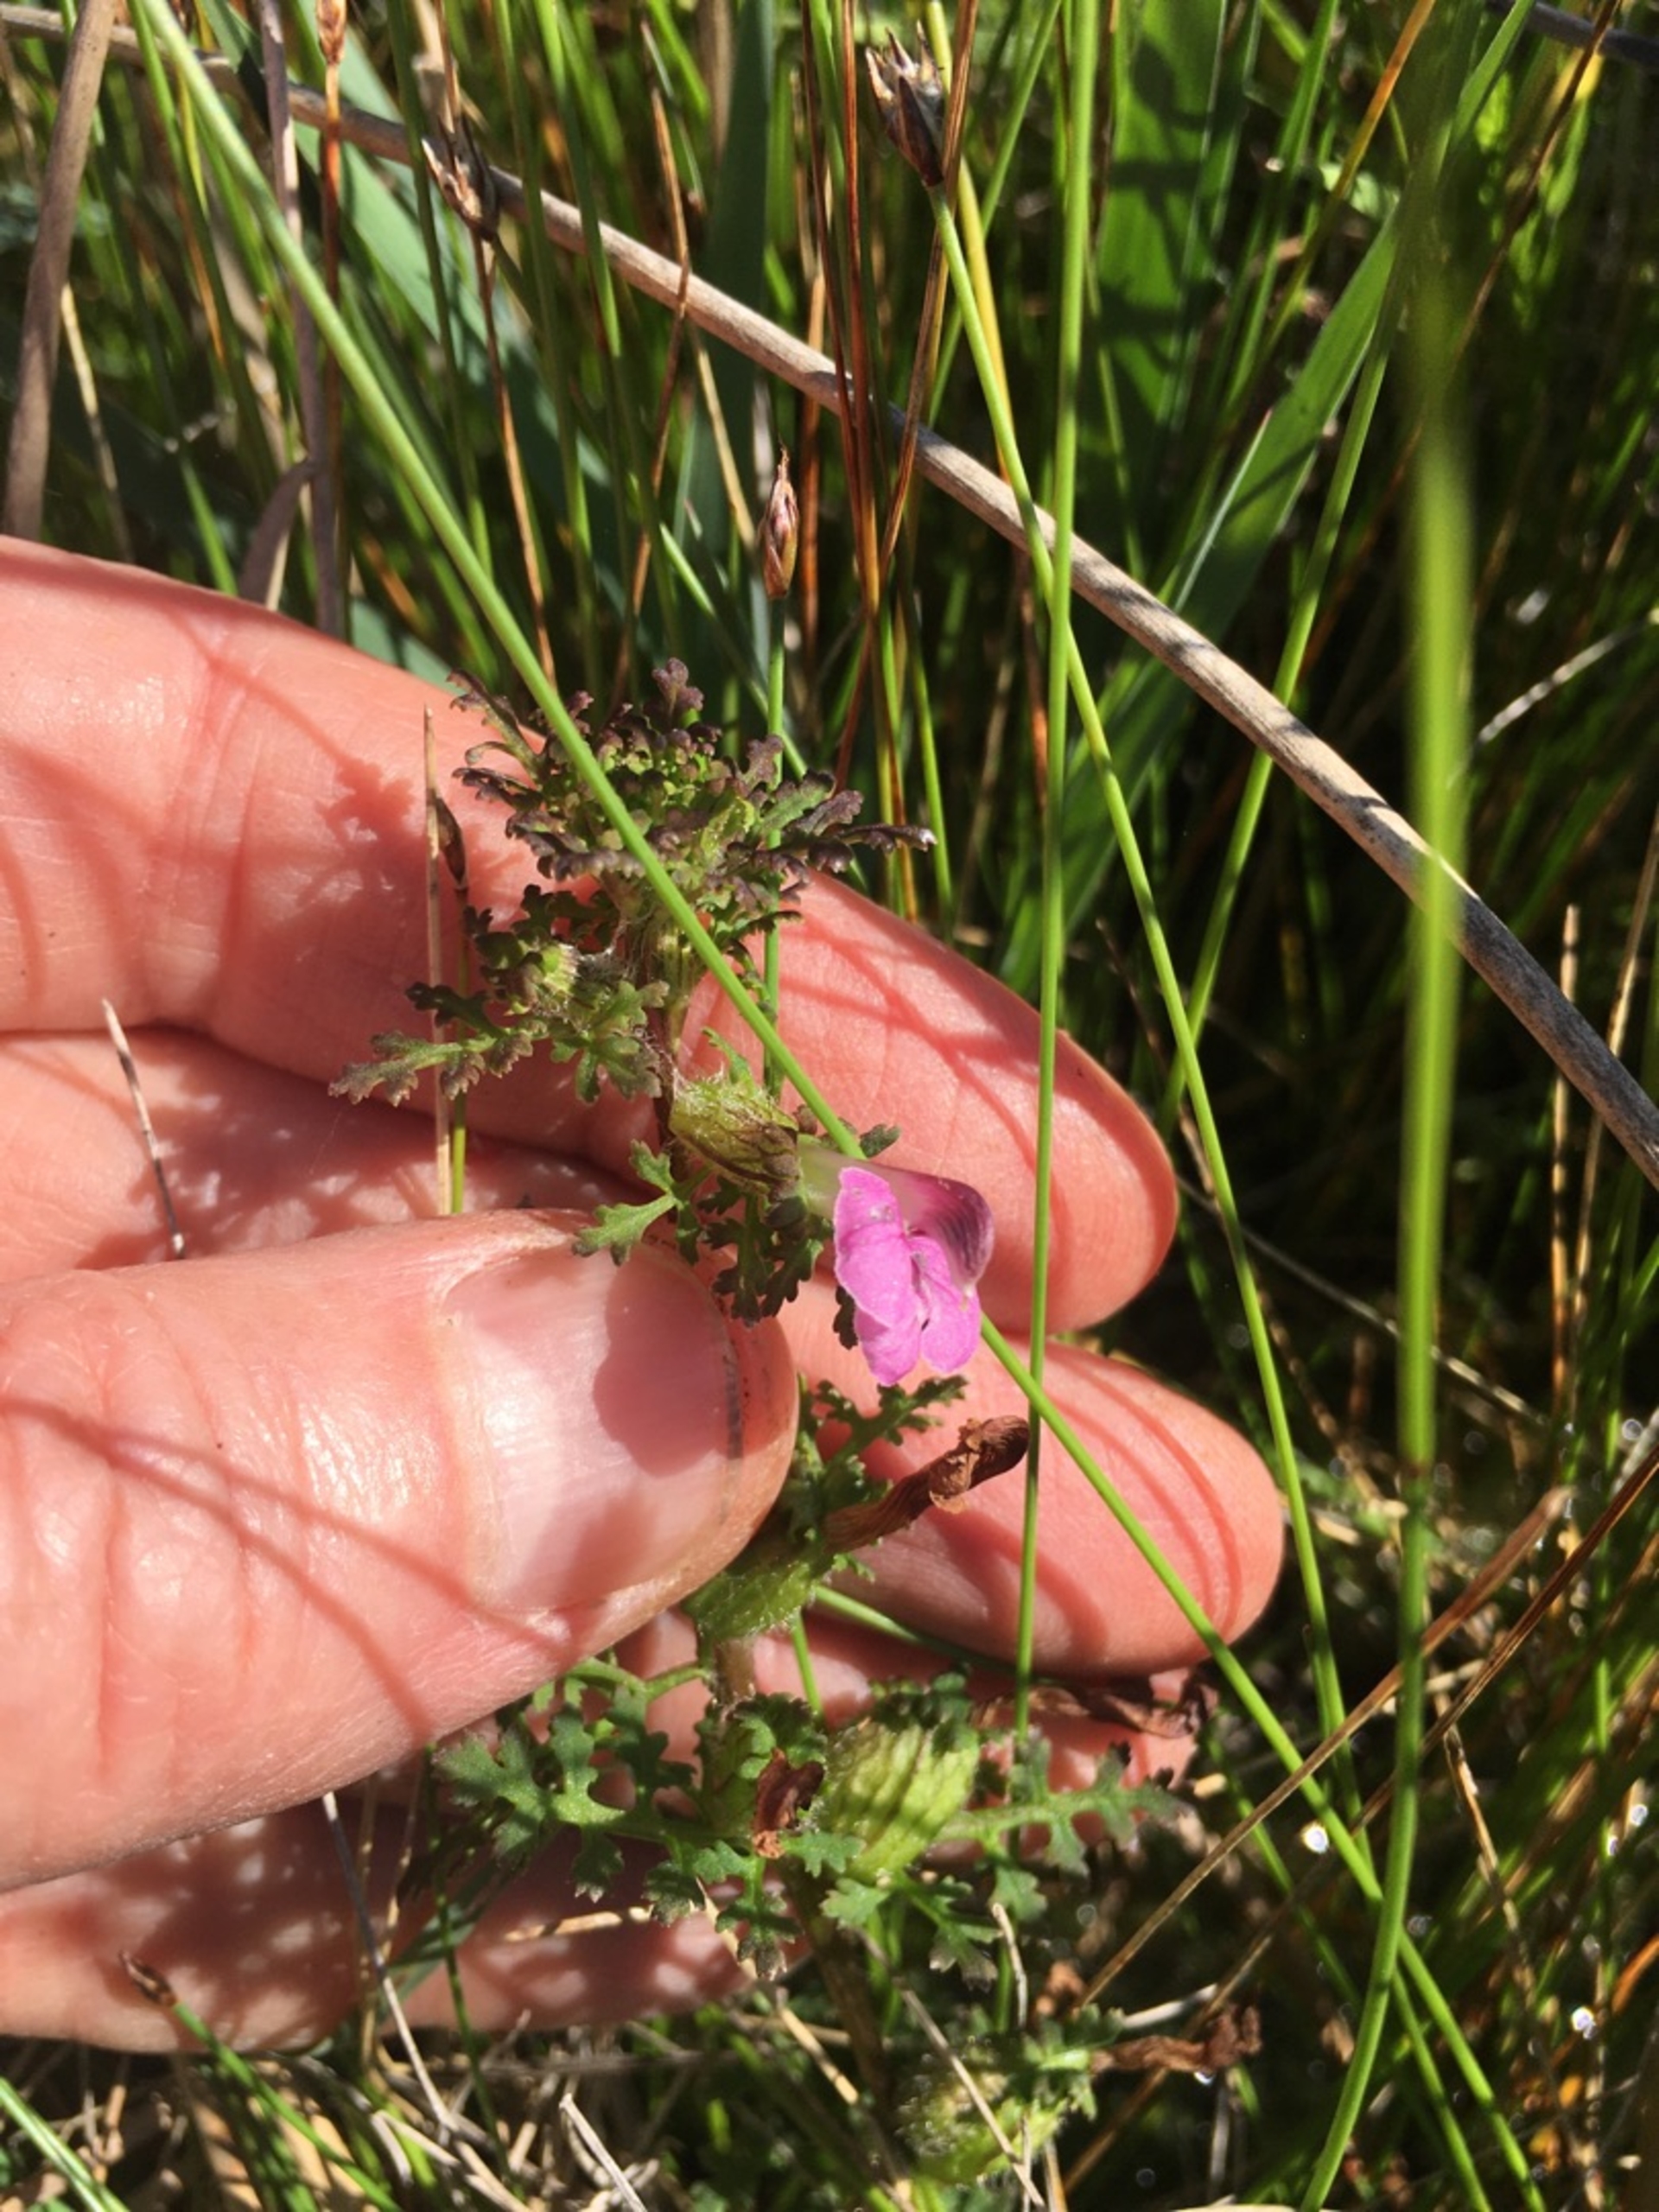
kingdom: Plantae
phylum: Tracheophyta
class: Magnoliopsida
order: Lamiales
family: Orobanchaceae
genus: Pedicularis
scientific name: Pedicularis palustris
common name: Eng-troldurt
